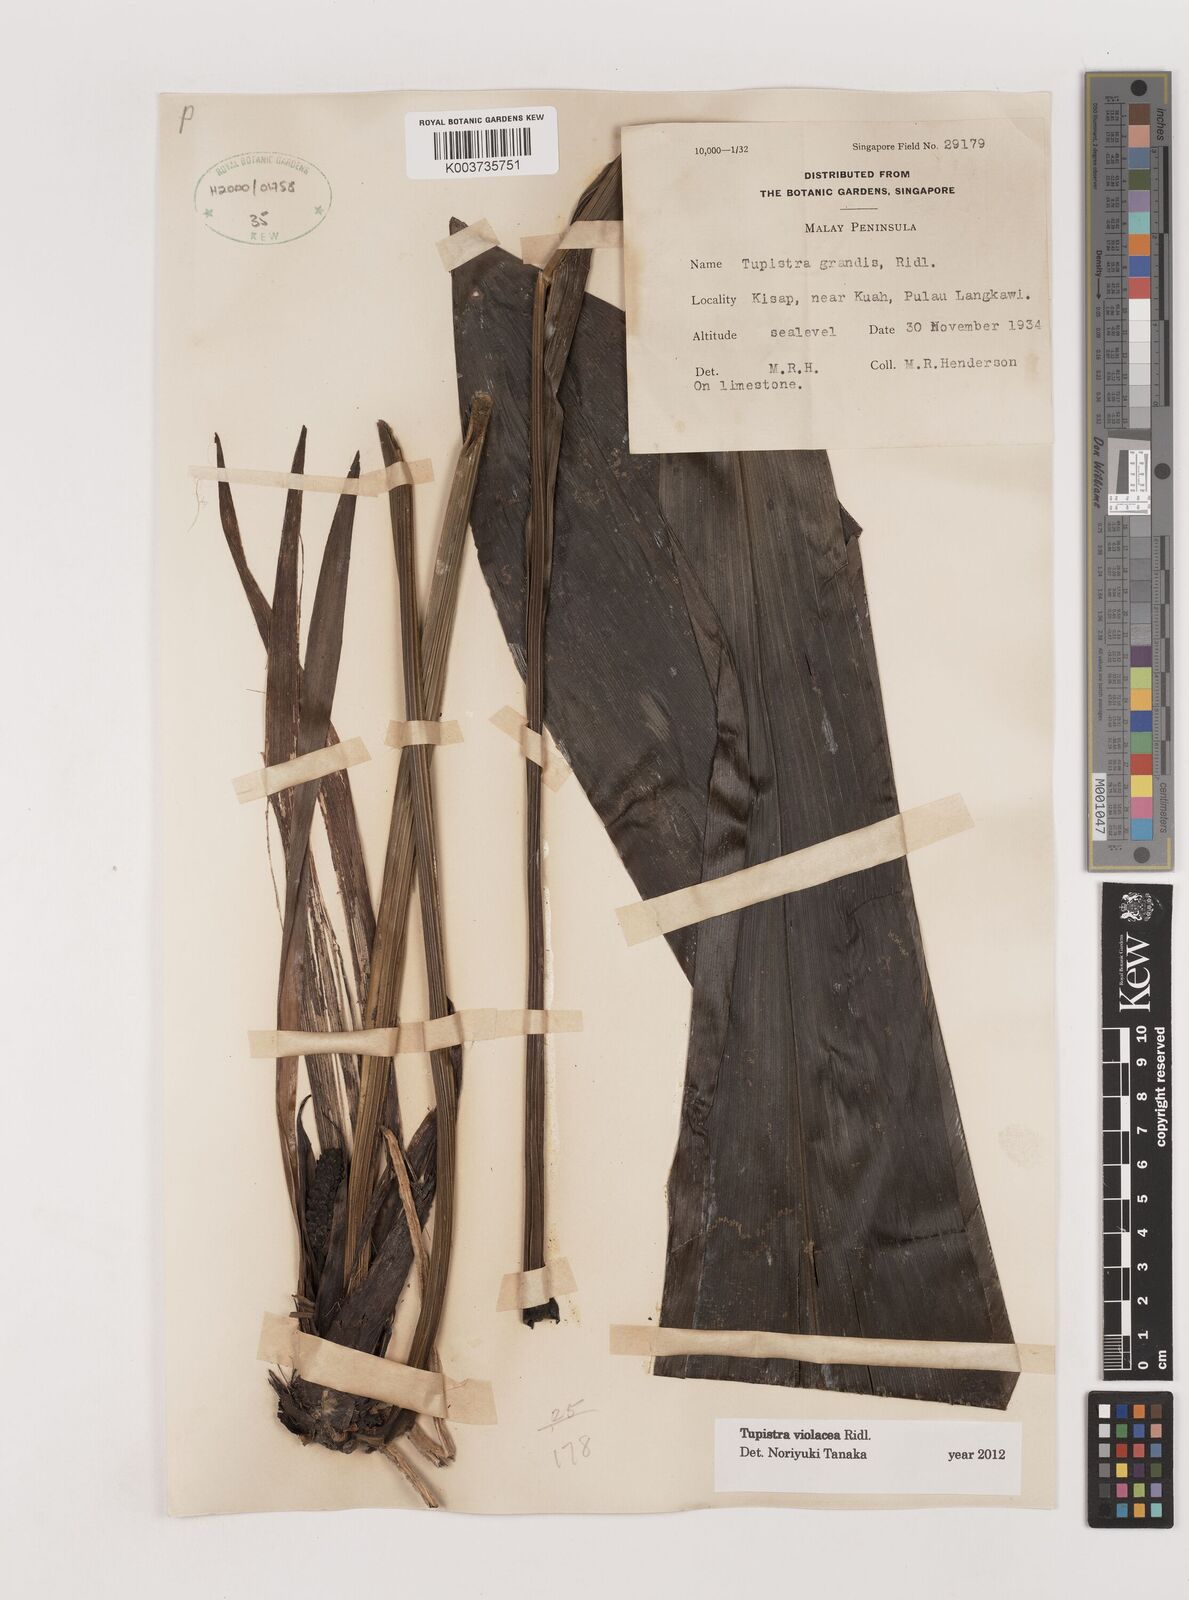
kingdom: Plantae
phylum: Tracheophyta
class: Liliopsida
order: Asparagales
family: Asparagaceae
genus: Tupistra
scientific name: Tupistra violacea
